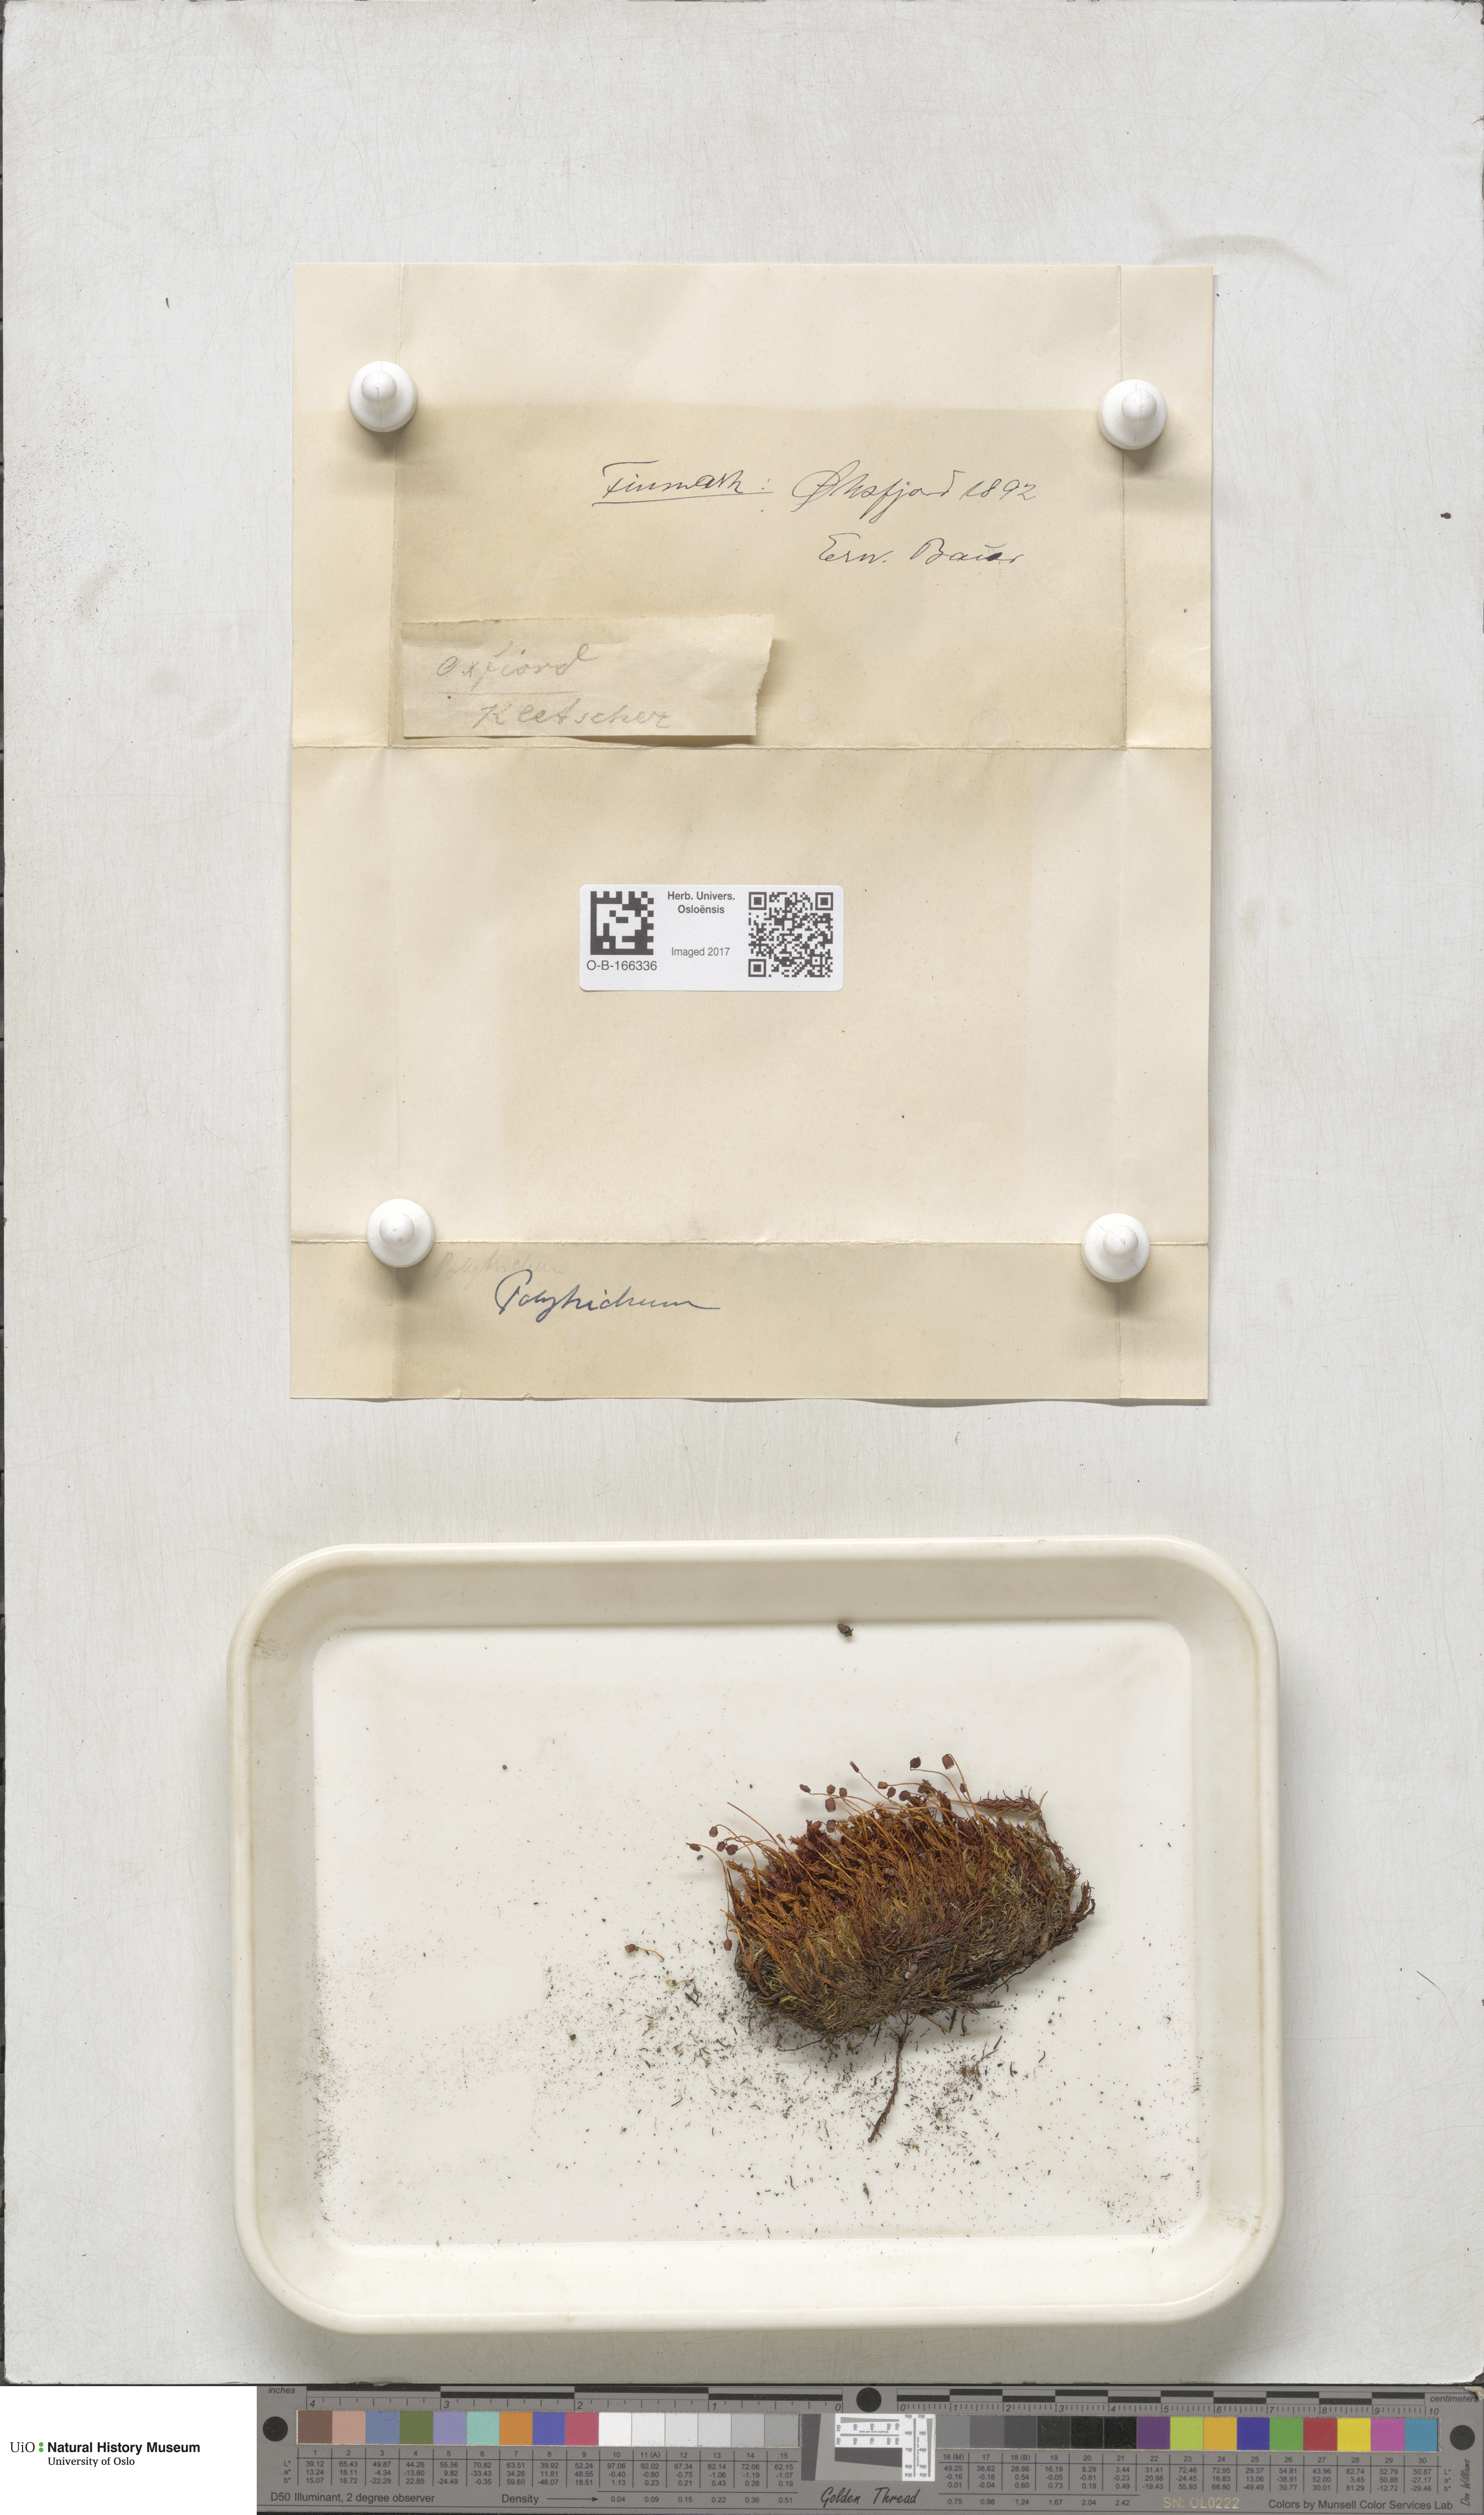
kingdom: Plantae
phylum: Bryophyta
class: Polytrichopsida
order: Polytrichales
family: Polytrichaceae
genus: Polytrichum
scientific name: Polytrichum
